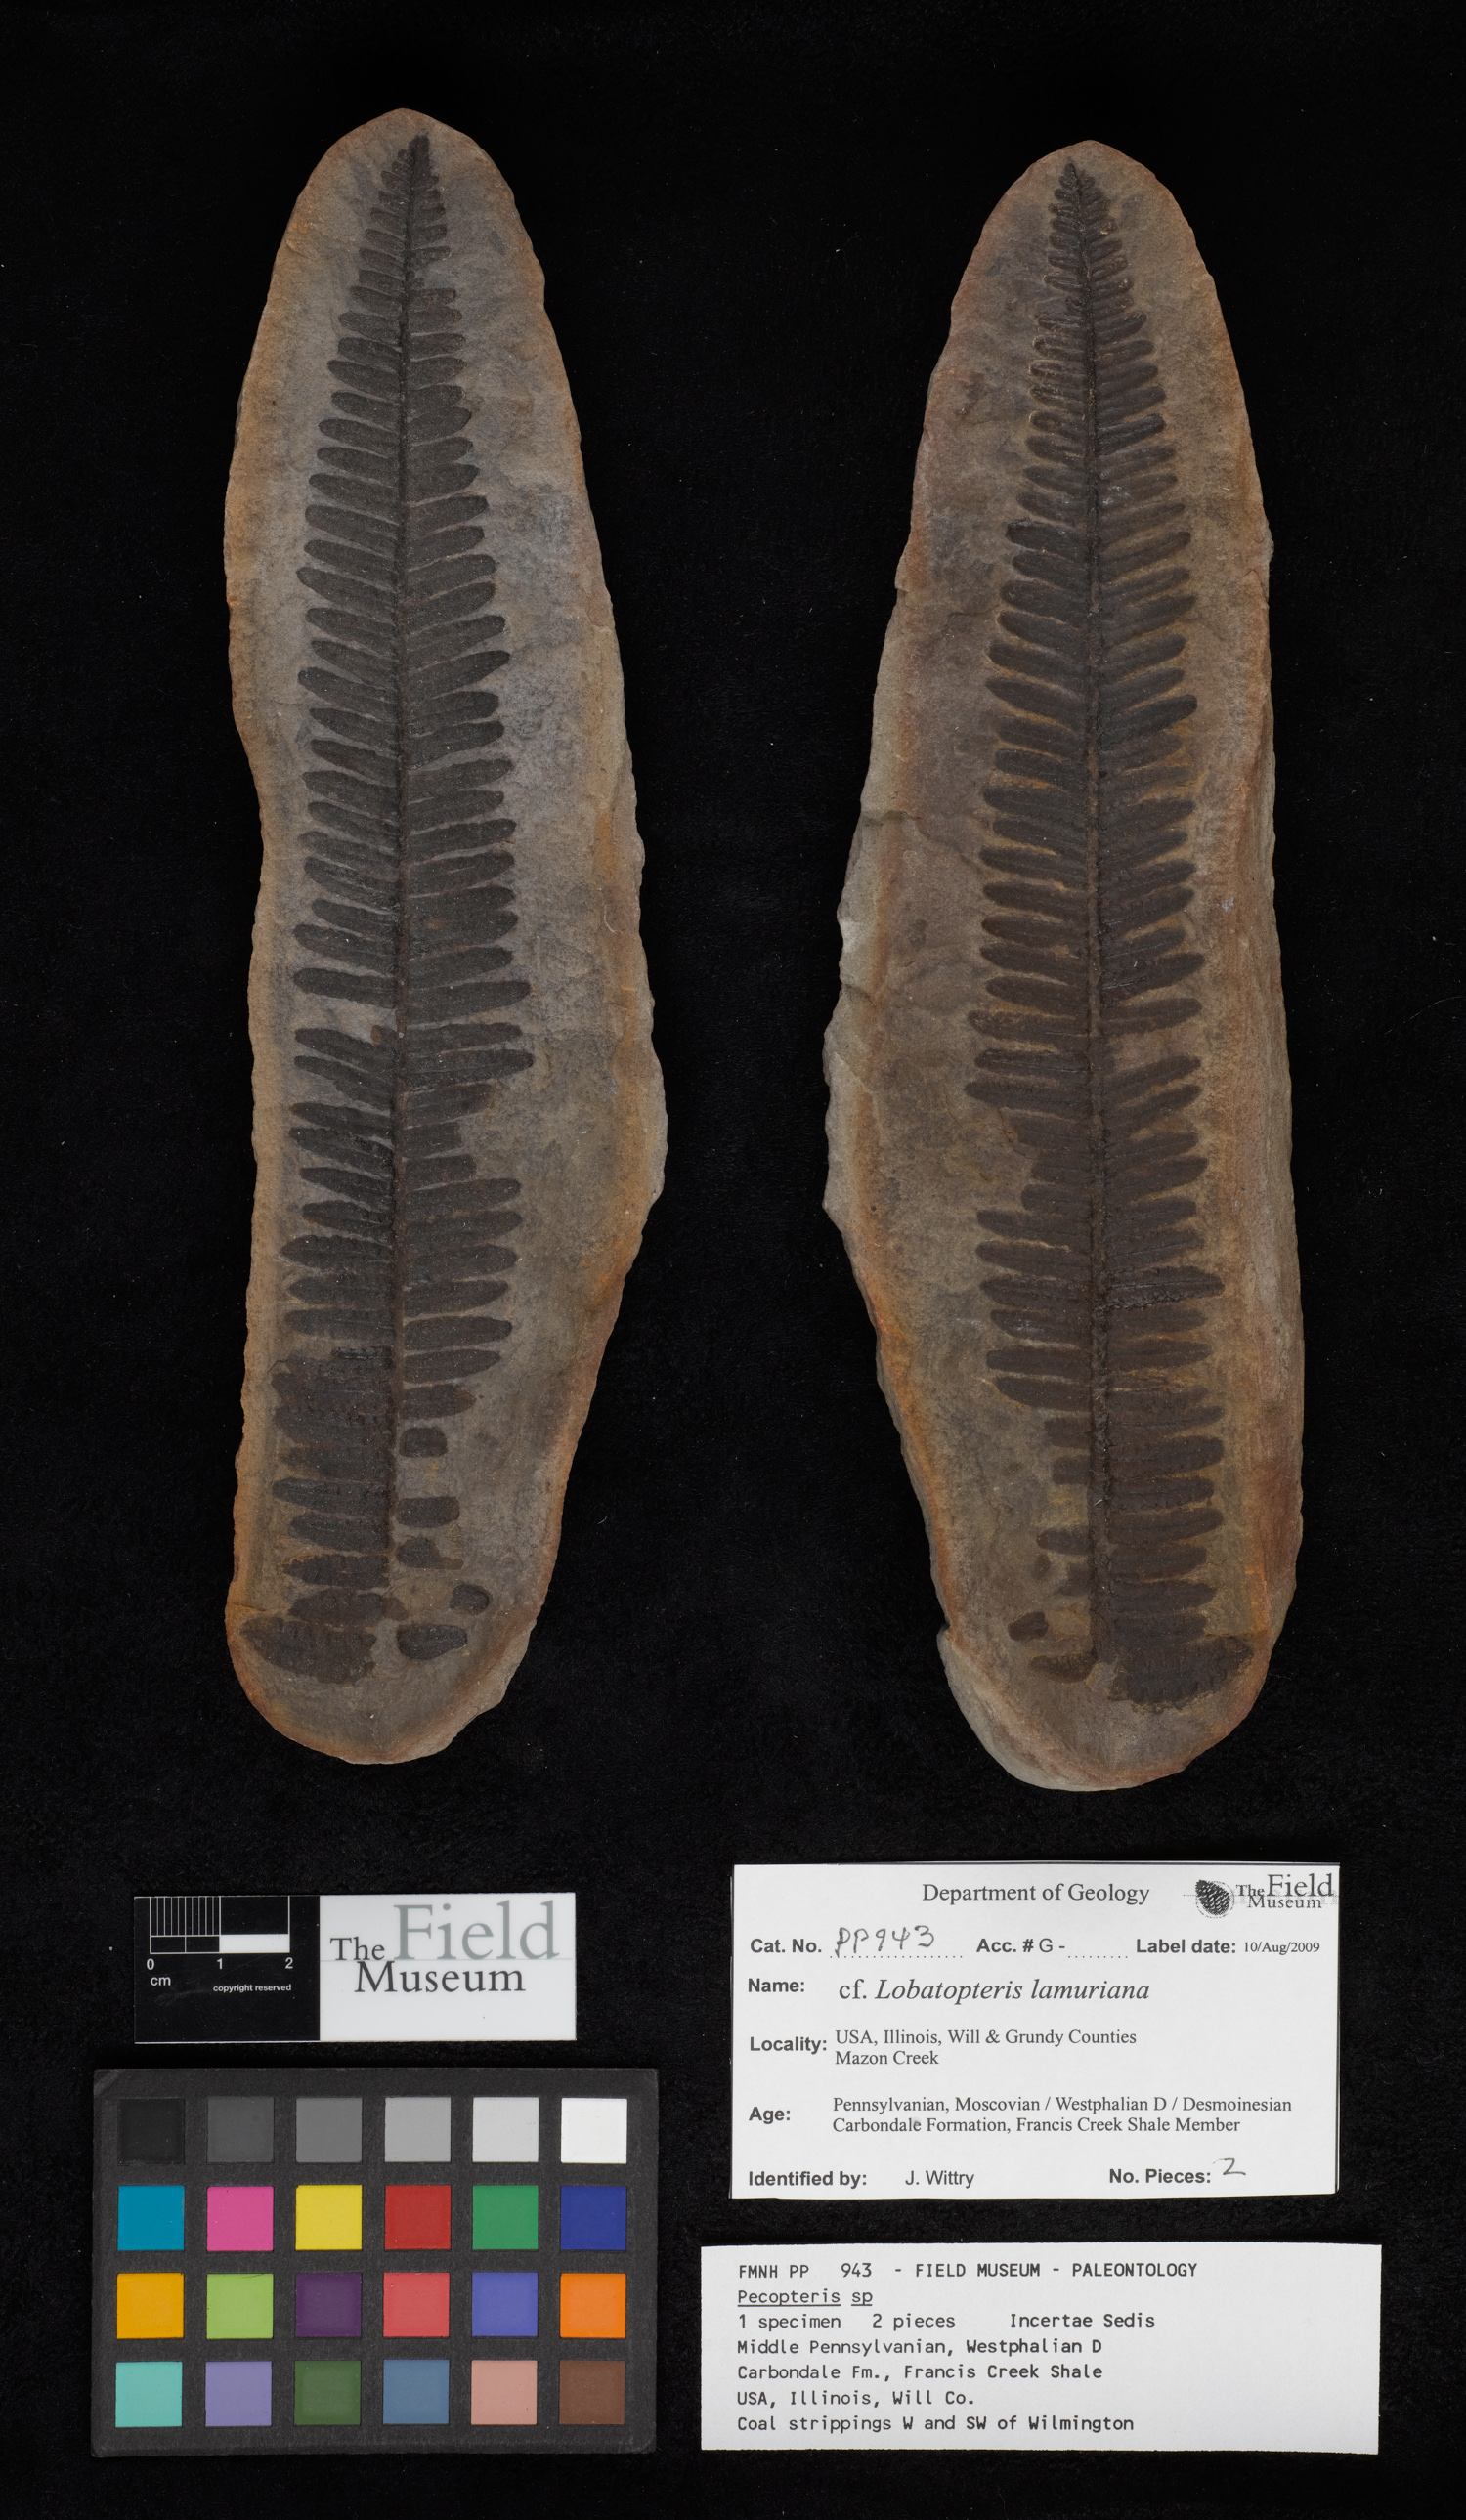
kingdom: Plantae
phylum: Tracheophyta
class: Polypodiopsida
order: Marattiales
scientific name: Marattiales
